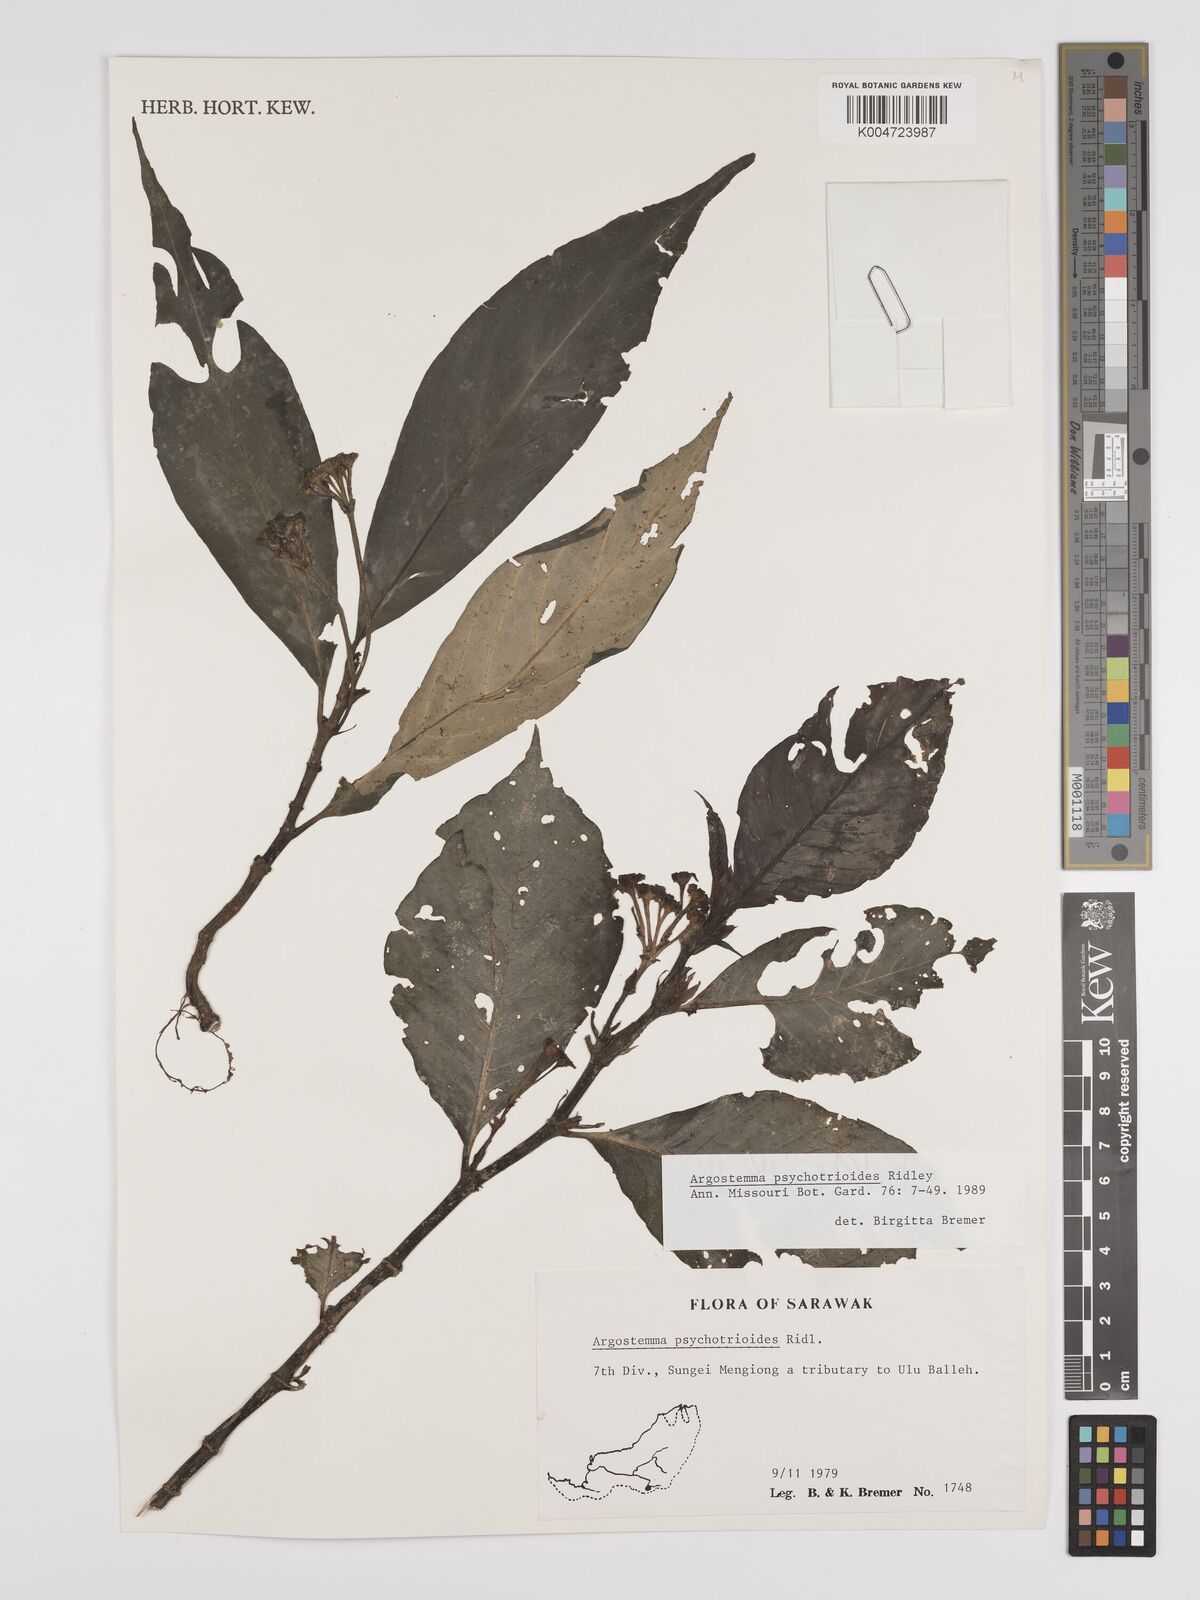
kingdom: Plantae
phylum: Tracheophyta
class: Magnoliopsida
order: Gentianales
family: Rubiaceae
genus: Argostemma
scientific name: Argostemma psychotrioides
